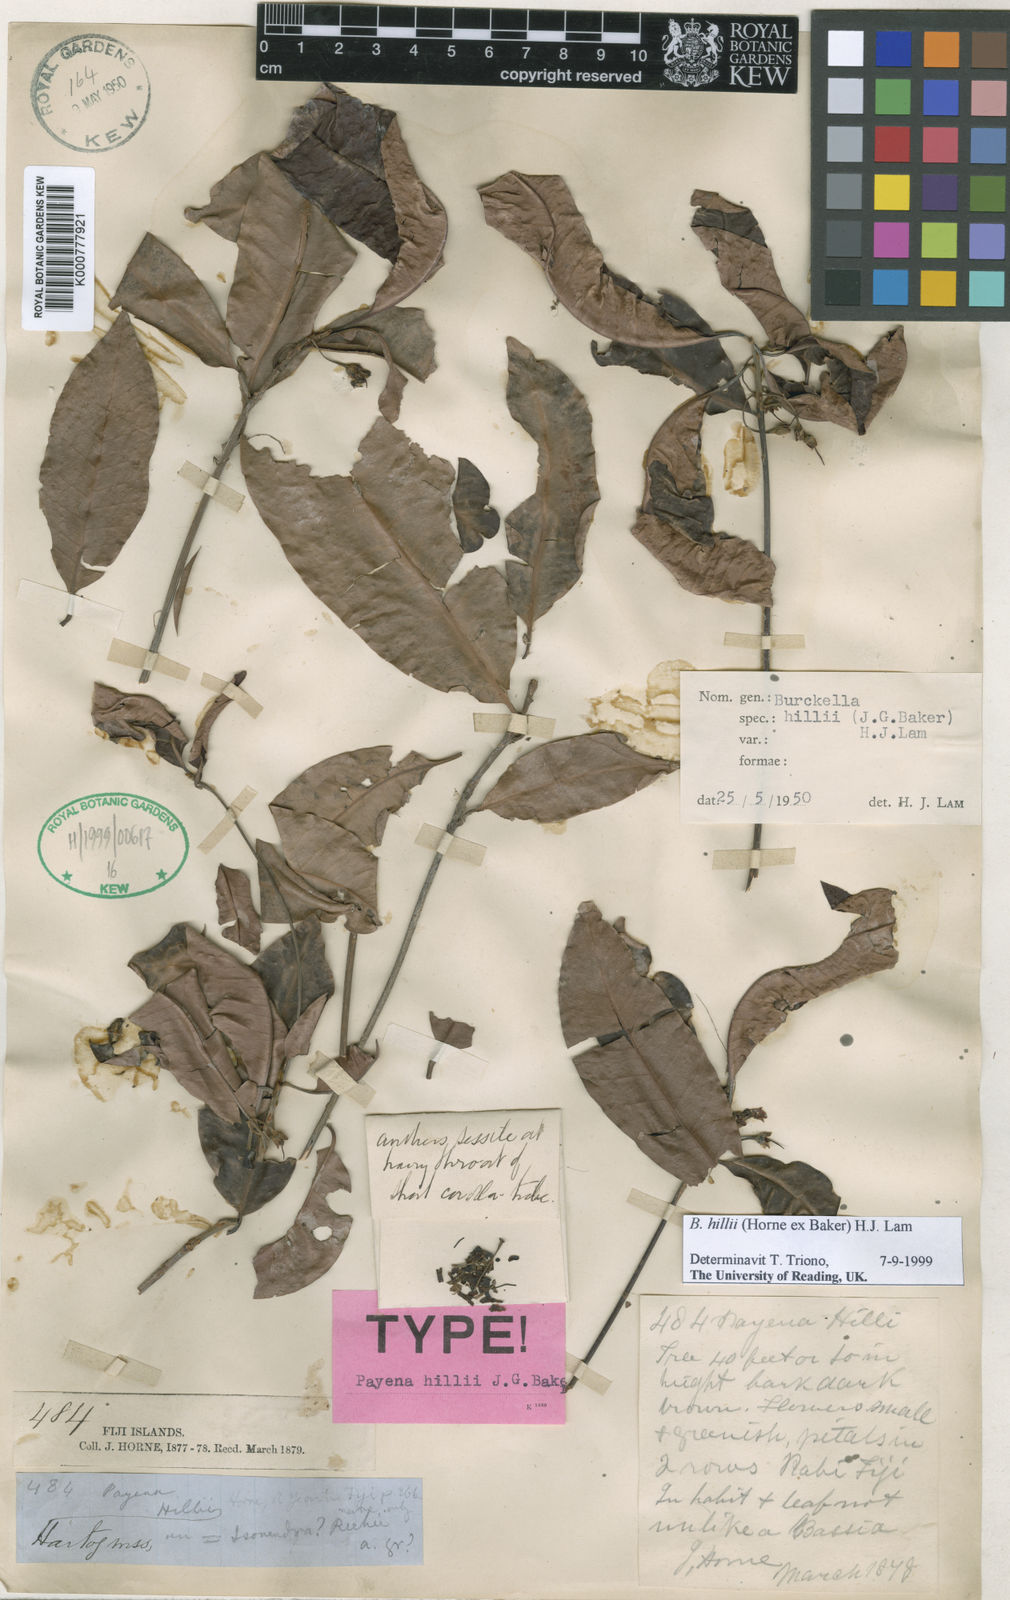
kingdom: Plantae
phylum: Tracheophyta
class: Magnoliopsida
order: Ericales
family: Sapotaceae
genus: Burckella
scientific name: Burckella hillii
